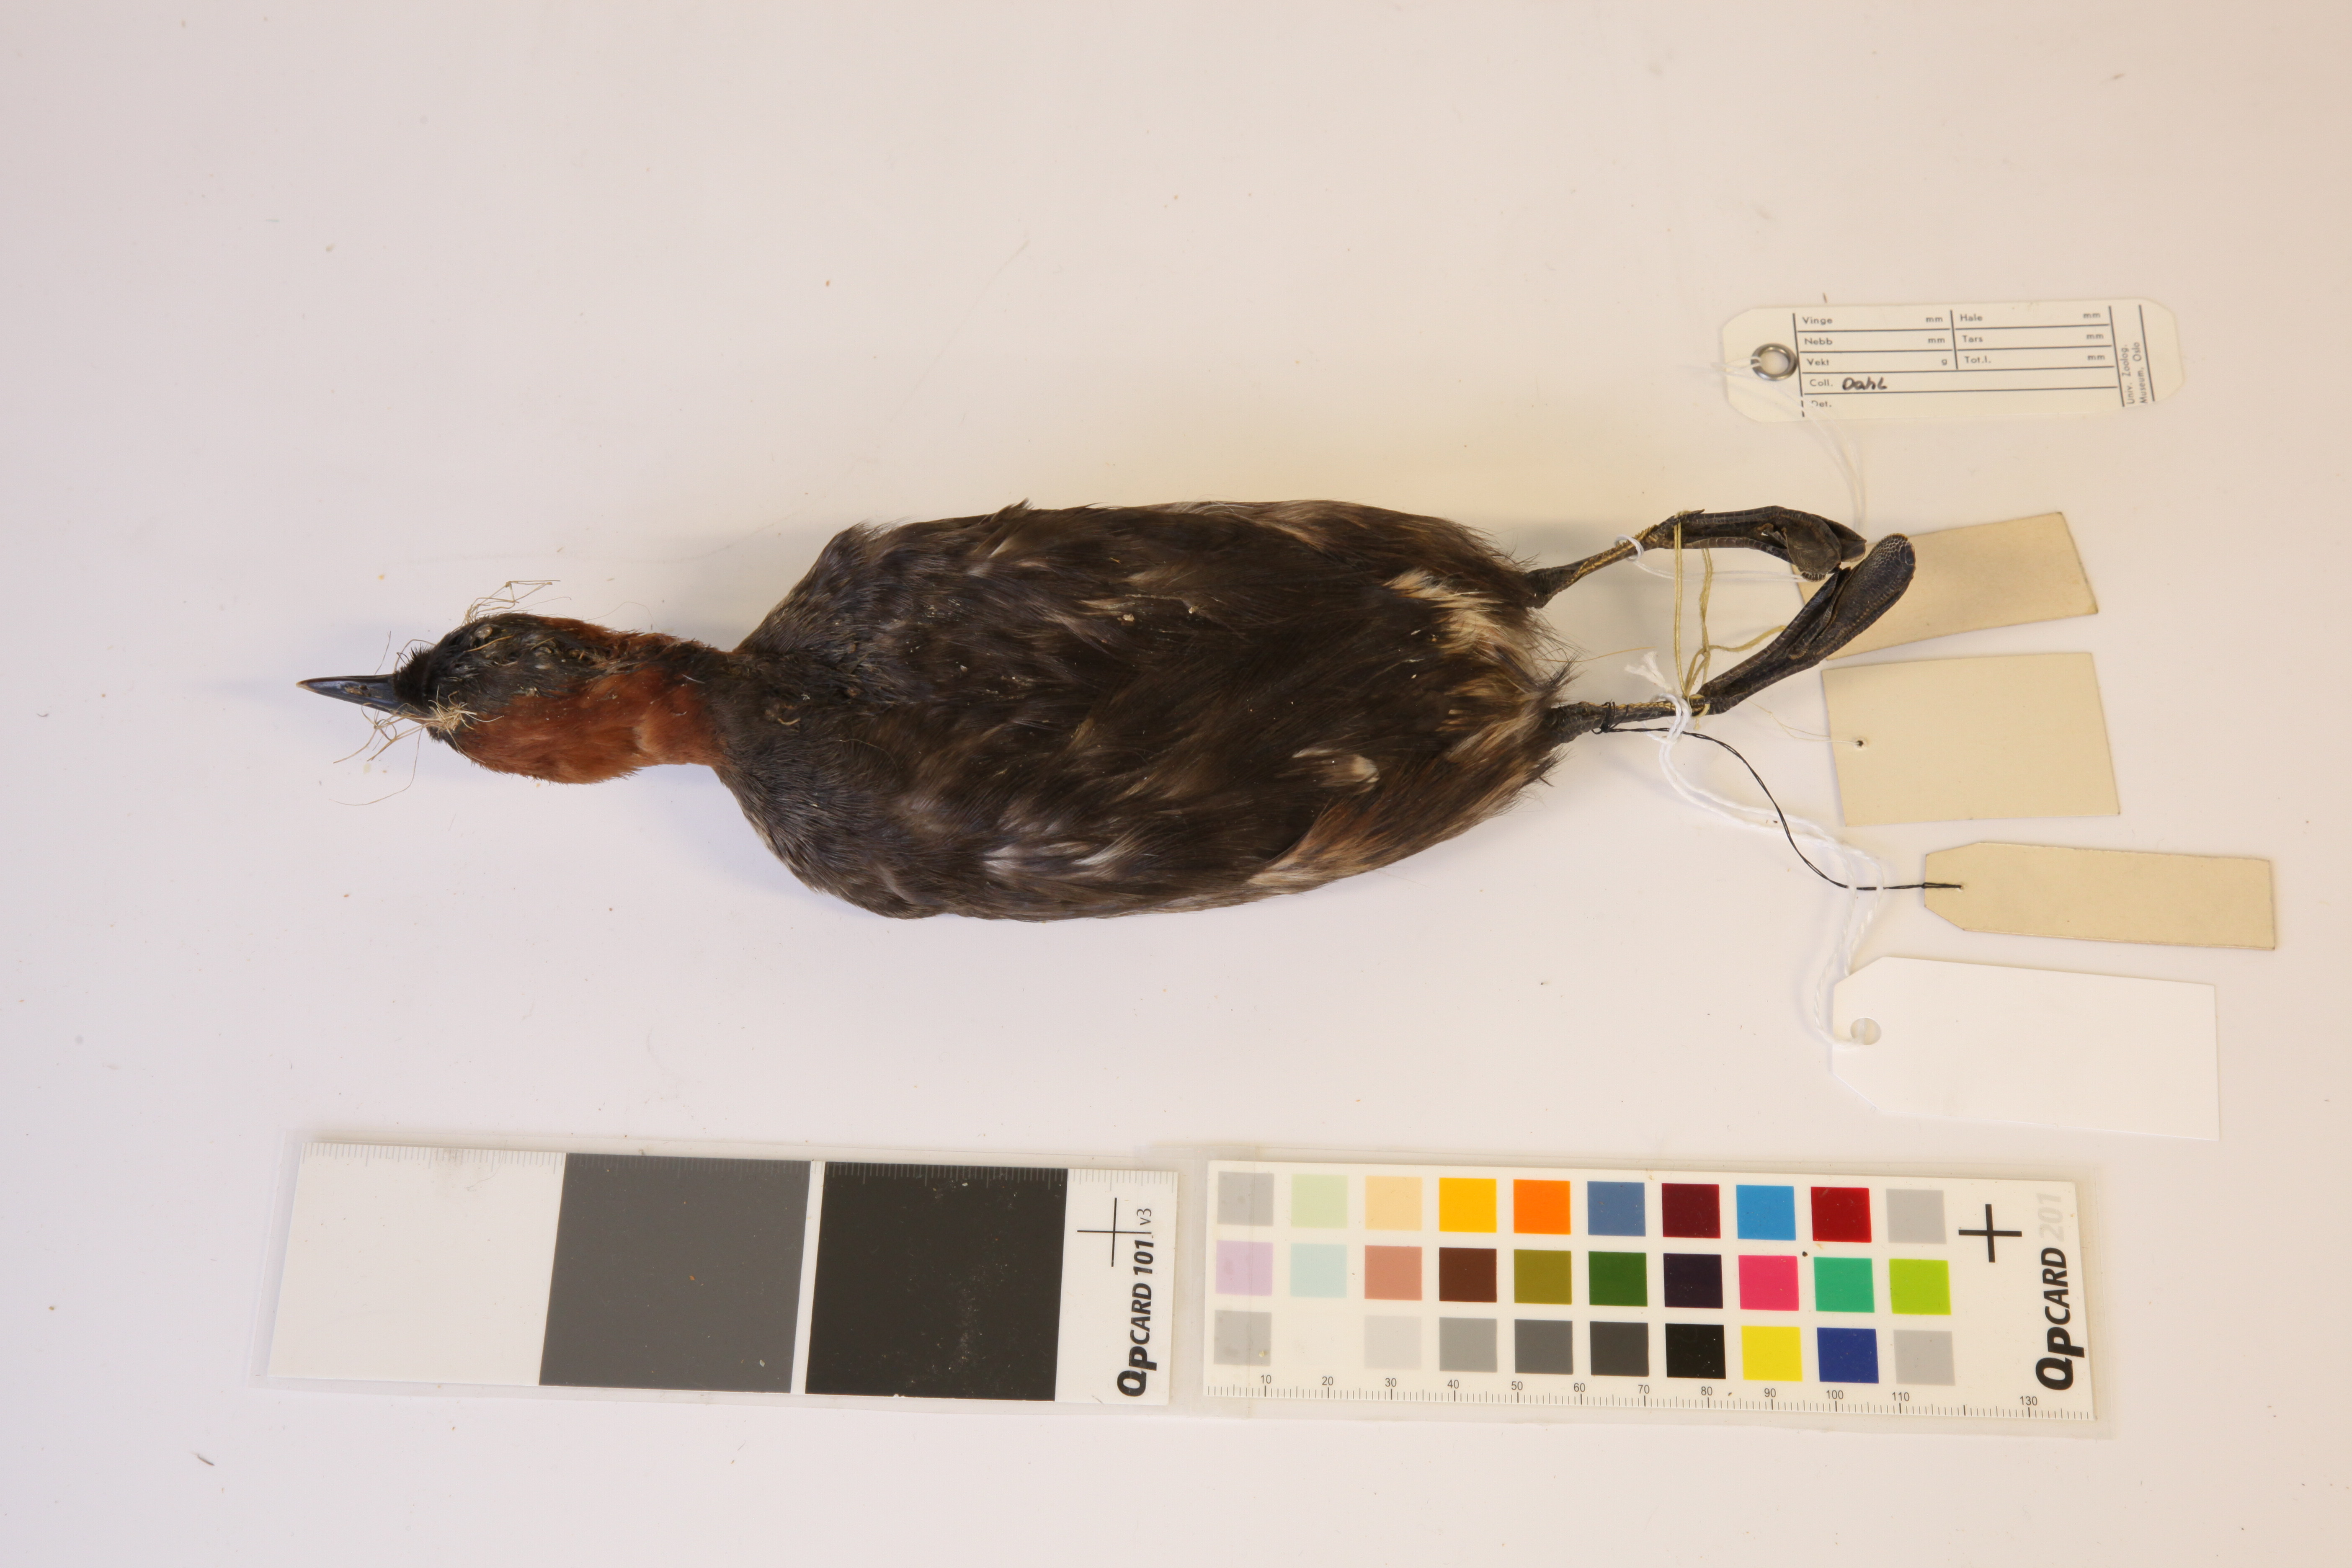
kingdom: Animalia
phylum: Chordata
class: Aves
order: Podicipediformes
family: Podicipedidae
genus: Tachybaptus
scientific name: Tachybaptus ruficollis
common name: Little grebe
